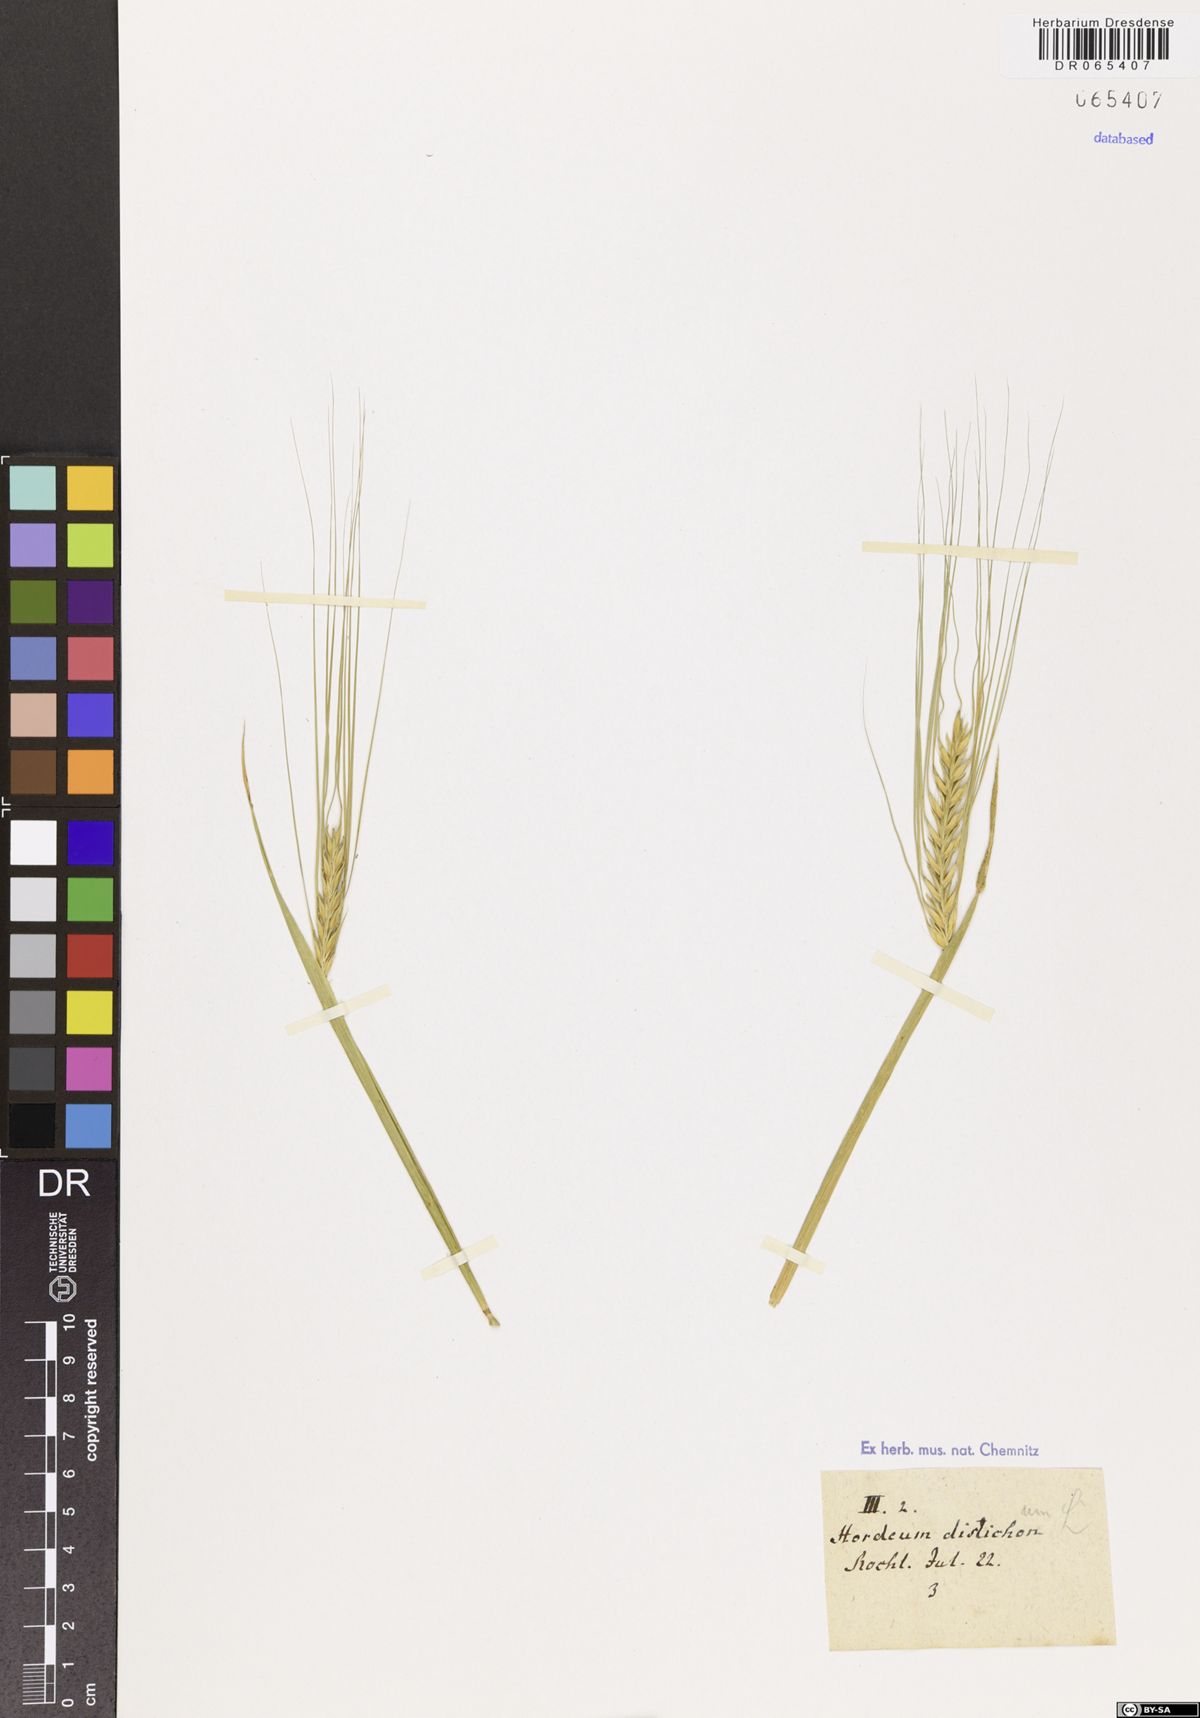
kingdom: Plantae
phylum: Tracheophyta
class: Liliopsida
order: Poales
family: Poaceae
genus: Hordeum
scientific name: Hordeum distichon
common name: Two-rowed barley
